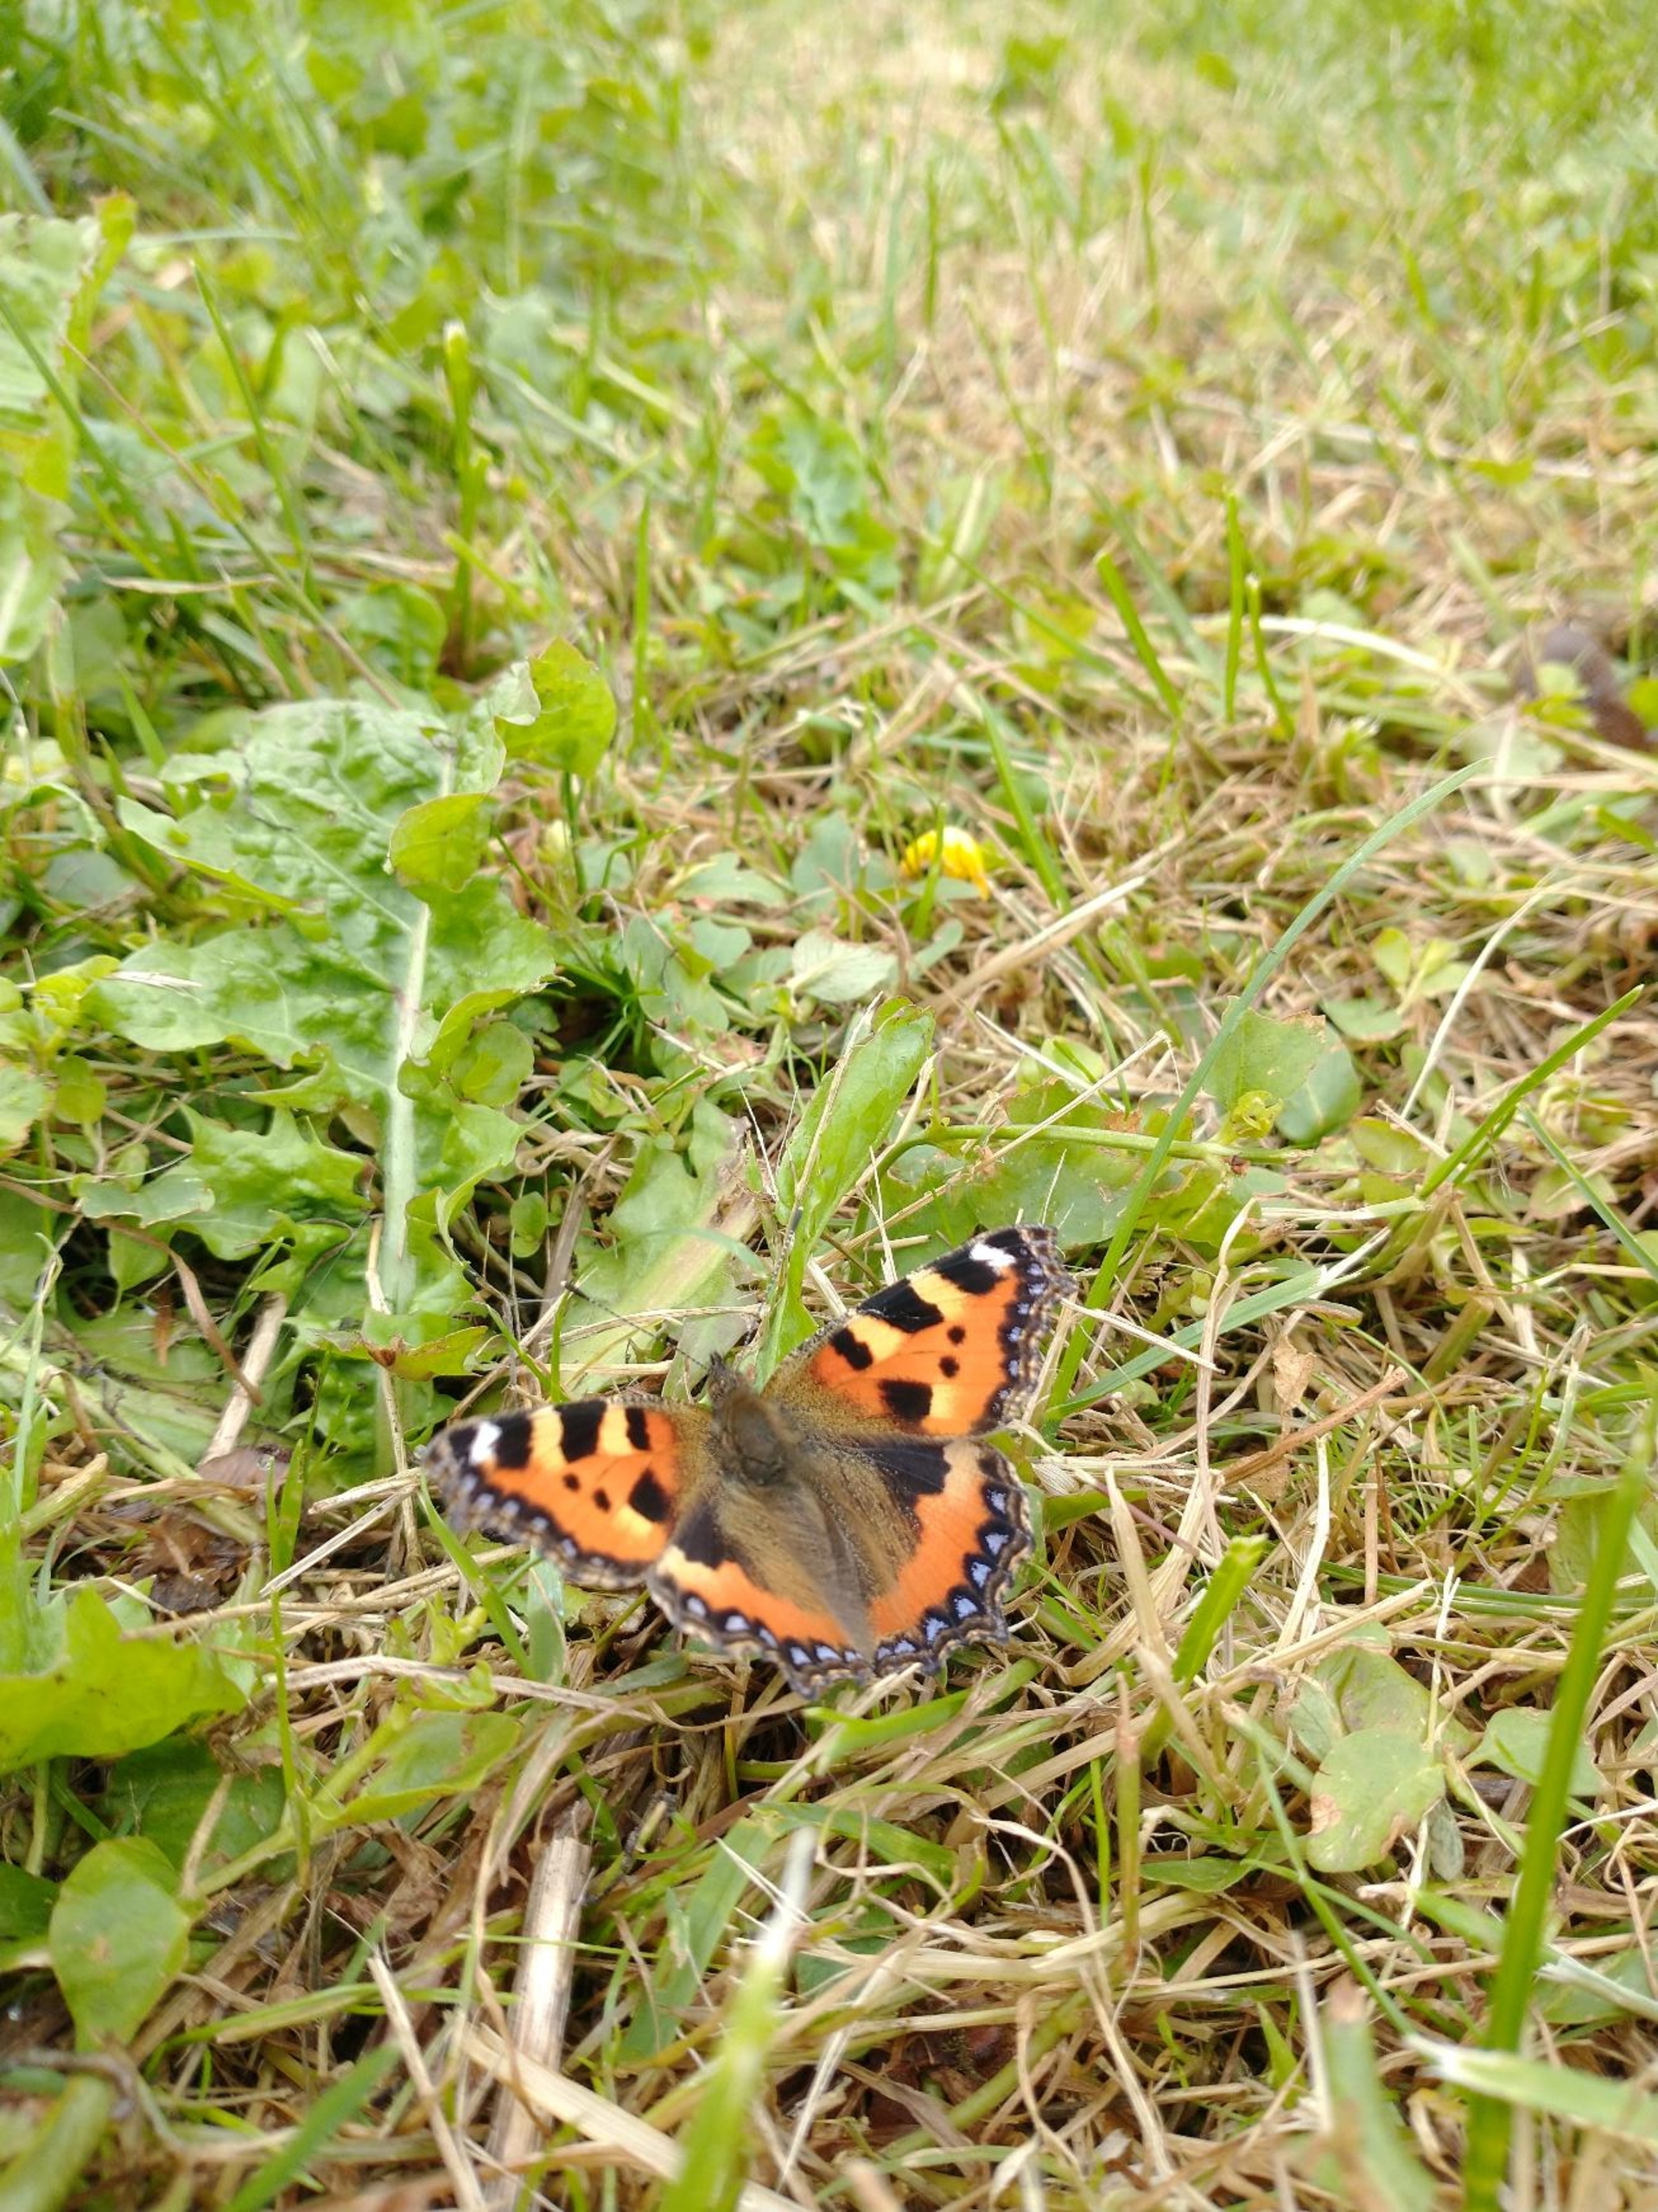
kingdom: Animalia
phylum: Arthropoda
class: Insecta
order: Lepidoptera
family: Nymphalidae
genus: Aglais
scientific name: Aglais urticae
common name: Nældens takvinge
